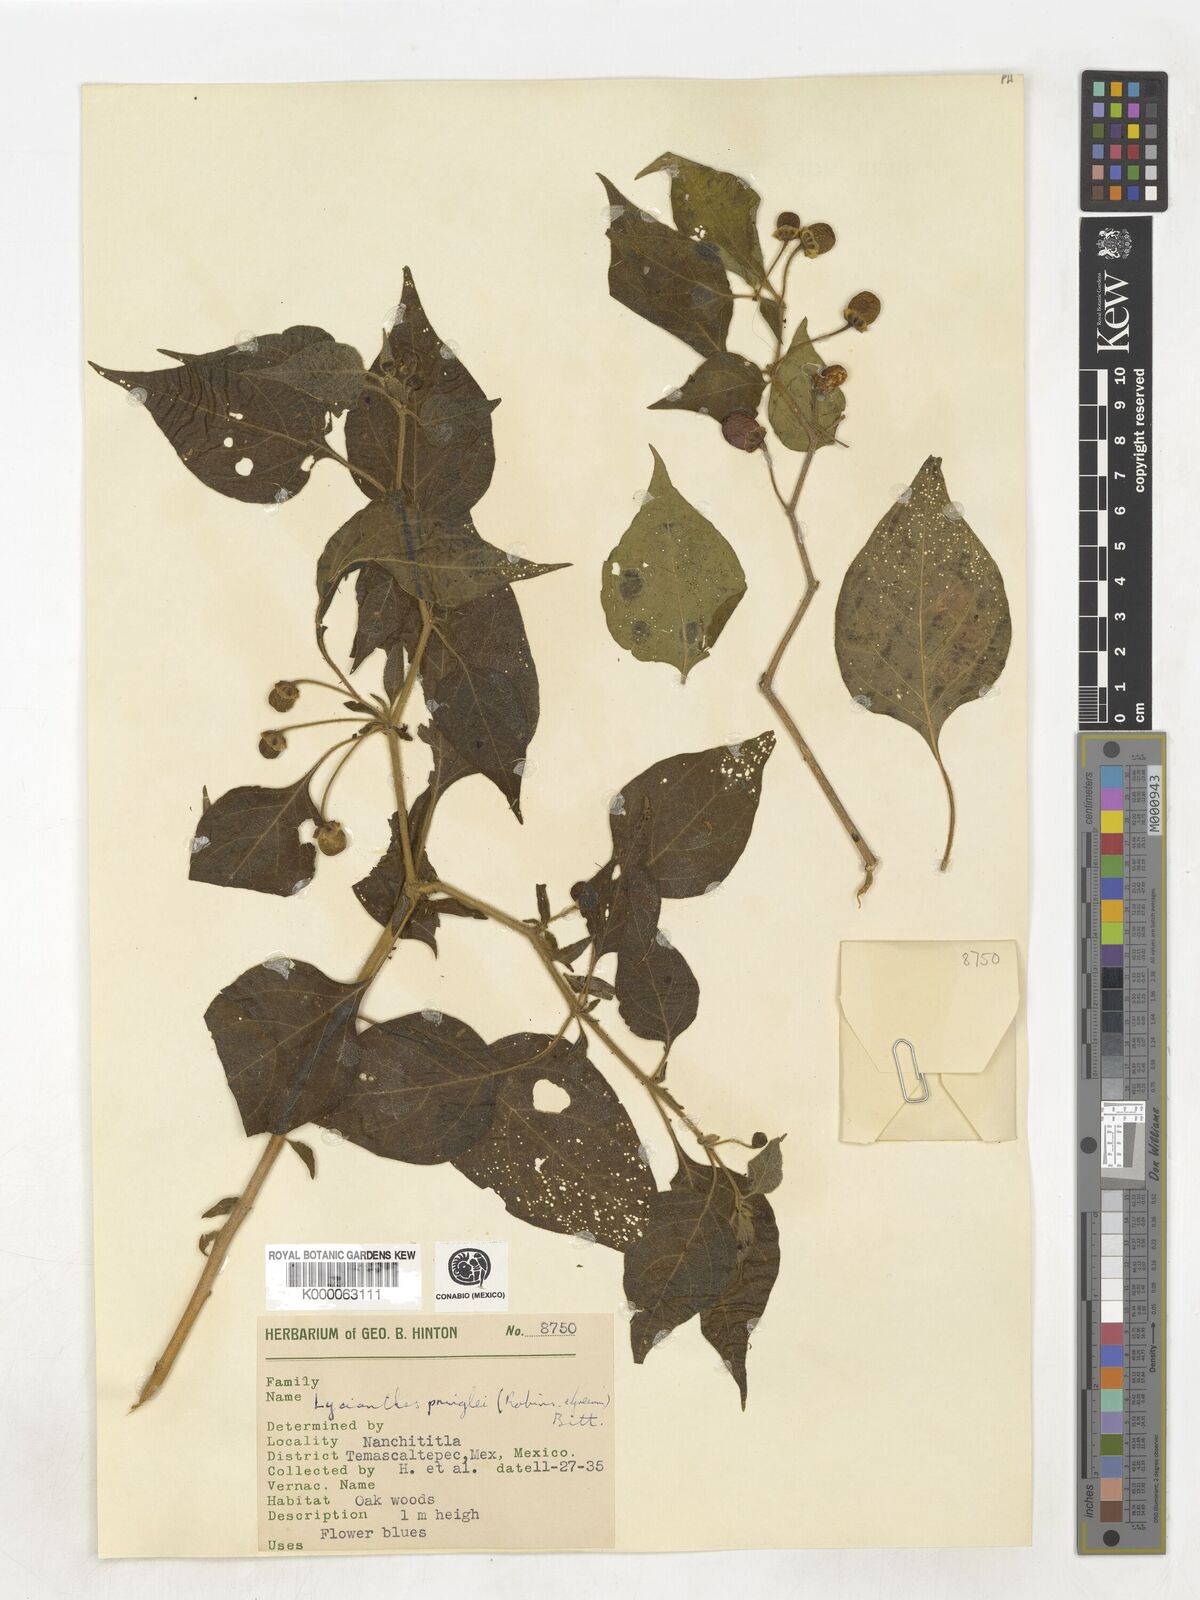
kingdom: Plantae
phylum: Tracheophyta
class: Magnoliopsida
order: Solanales
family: Solanaceae
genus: Lycianthes
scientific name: Lycianthes pringlei
